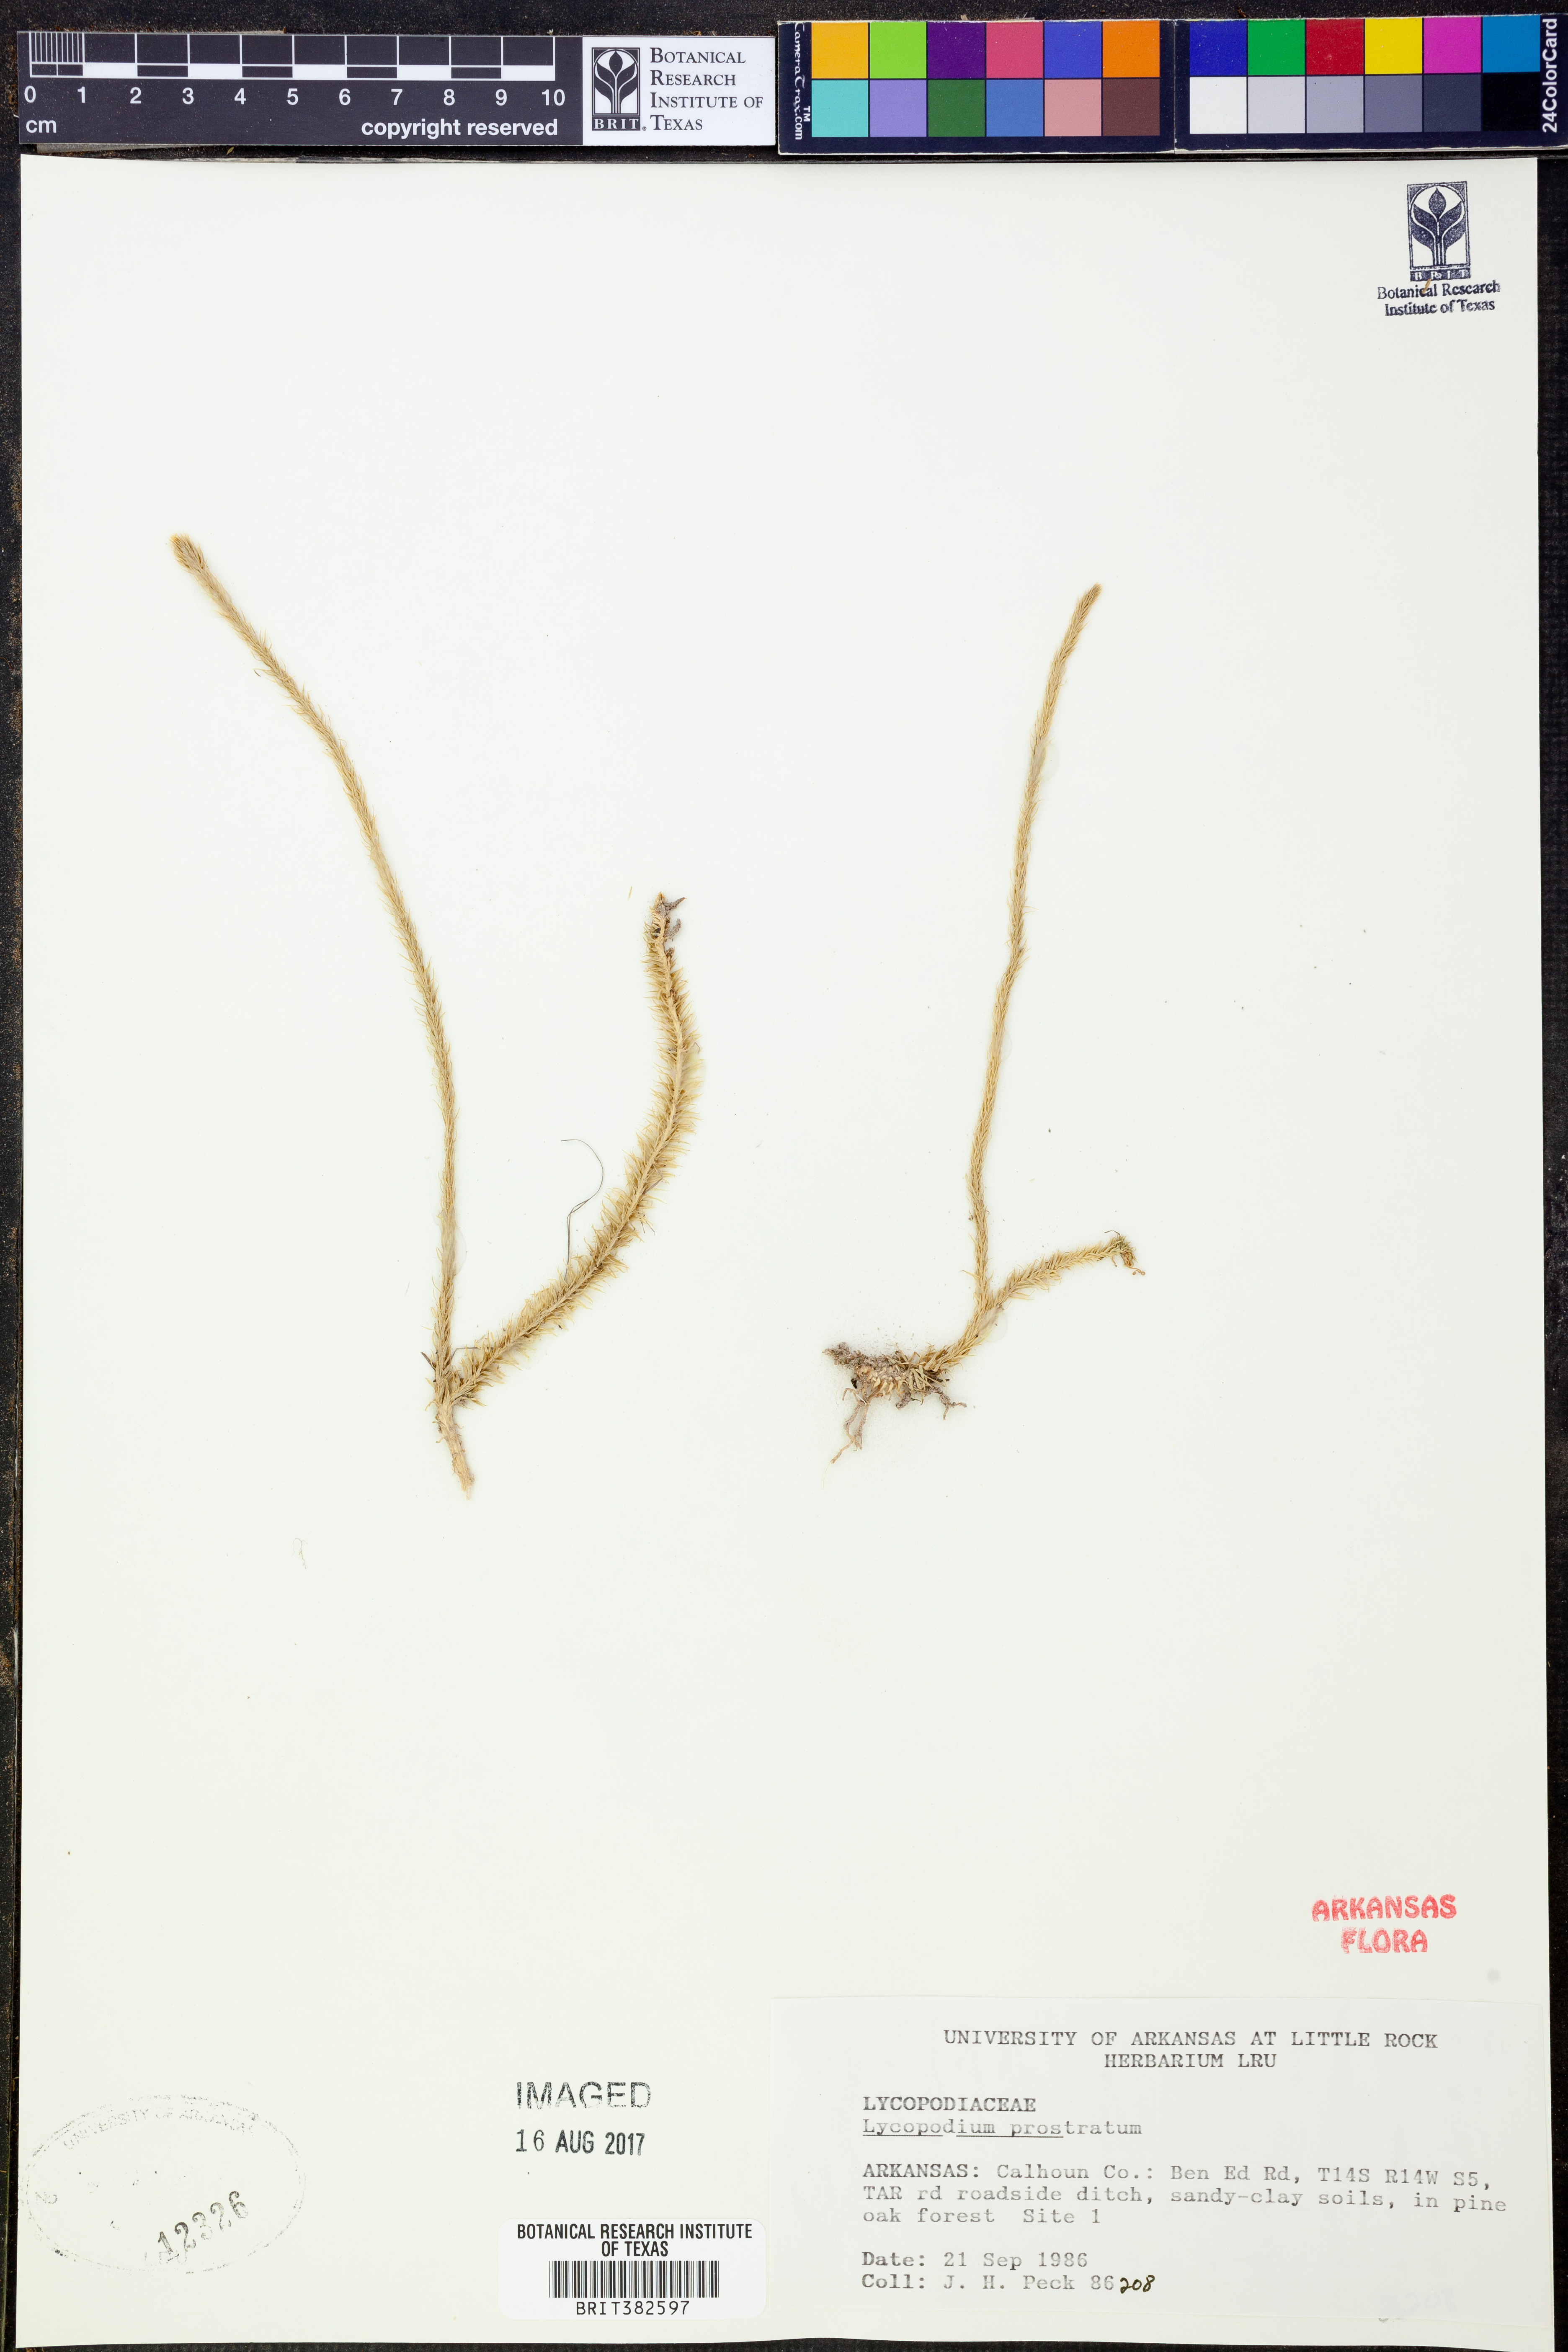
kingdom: Plantae
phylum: Tracheophyta
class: Lycopodiopsida
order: Lycopodiales
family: Lycopodiaceae
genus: Lycopodiella
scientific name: Lycopodiella prostrata
